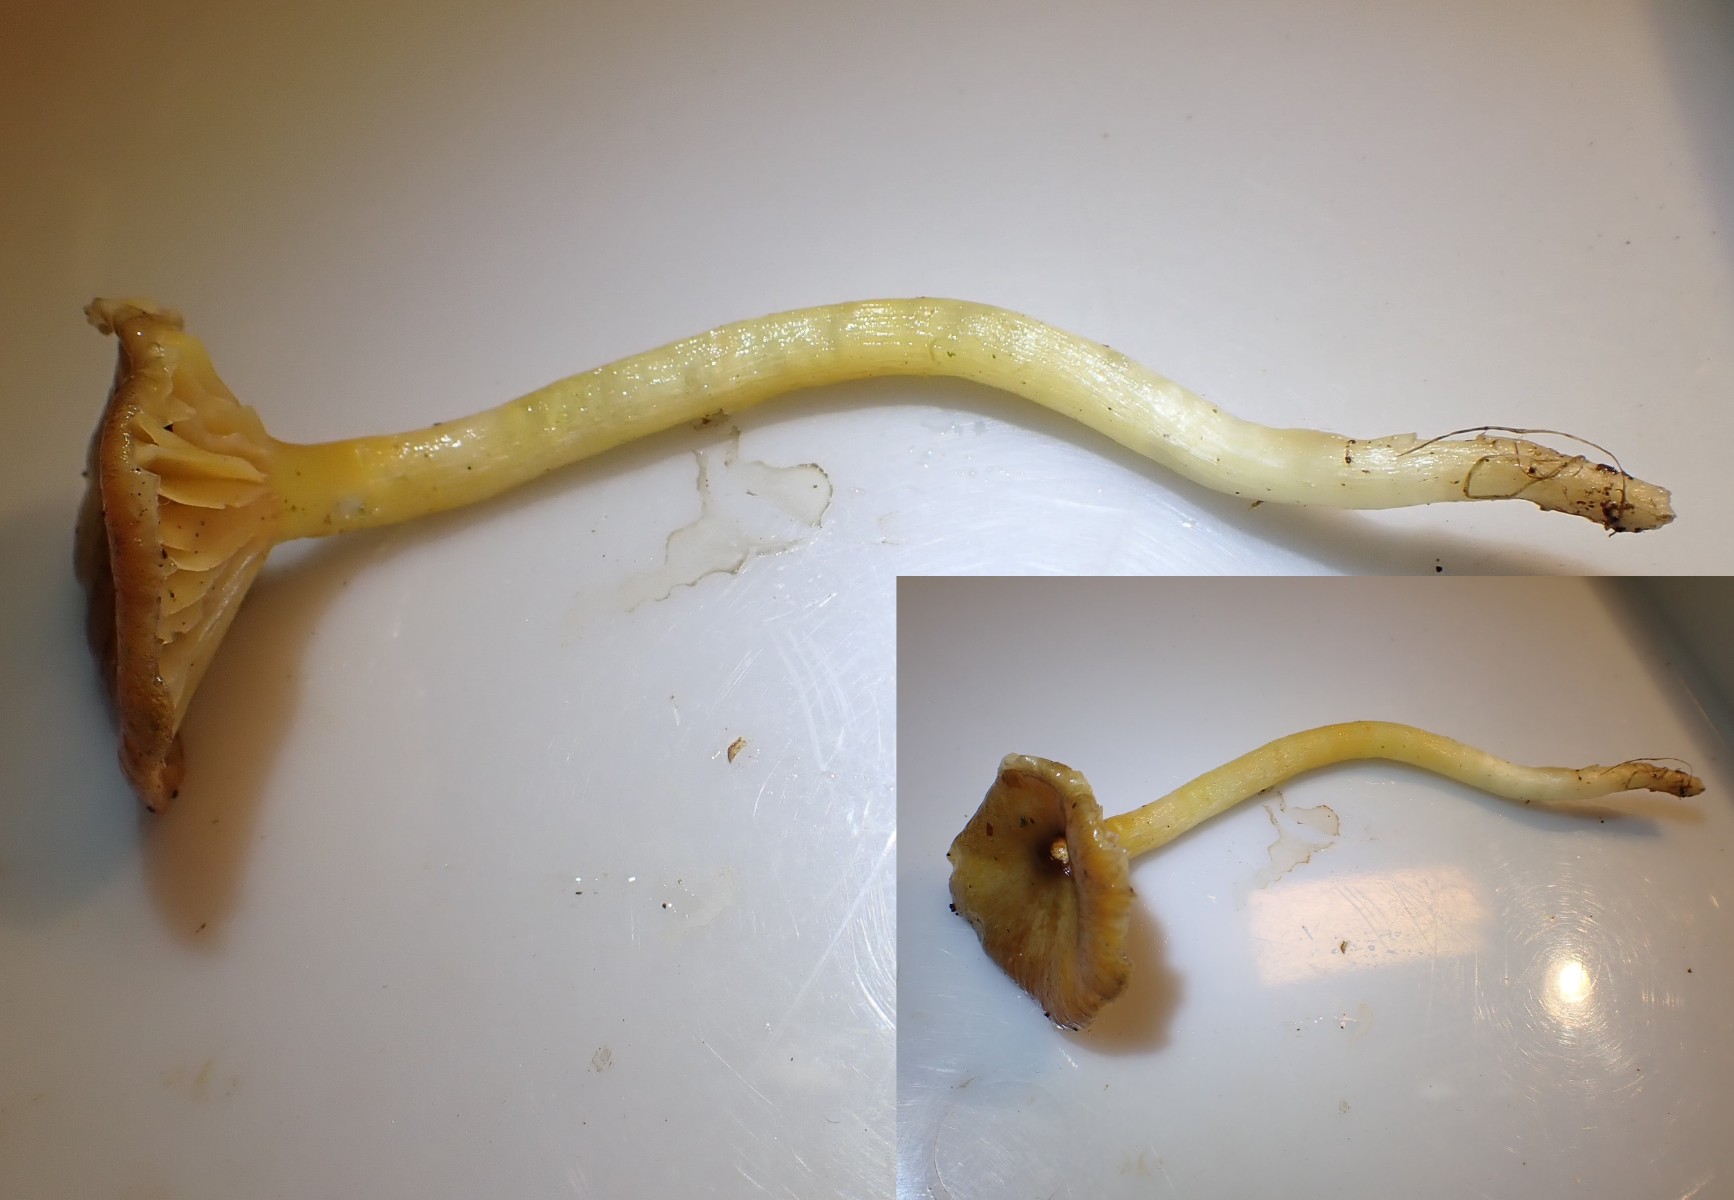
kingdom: Fungi
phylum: Basidiomycota
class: Agaricomycetes
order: Agaricales
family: Hygrophoraceae
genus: Hygrophorus
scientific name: Hygrophorus hypothejus
